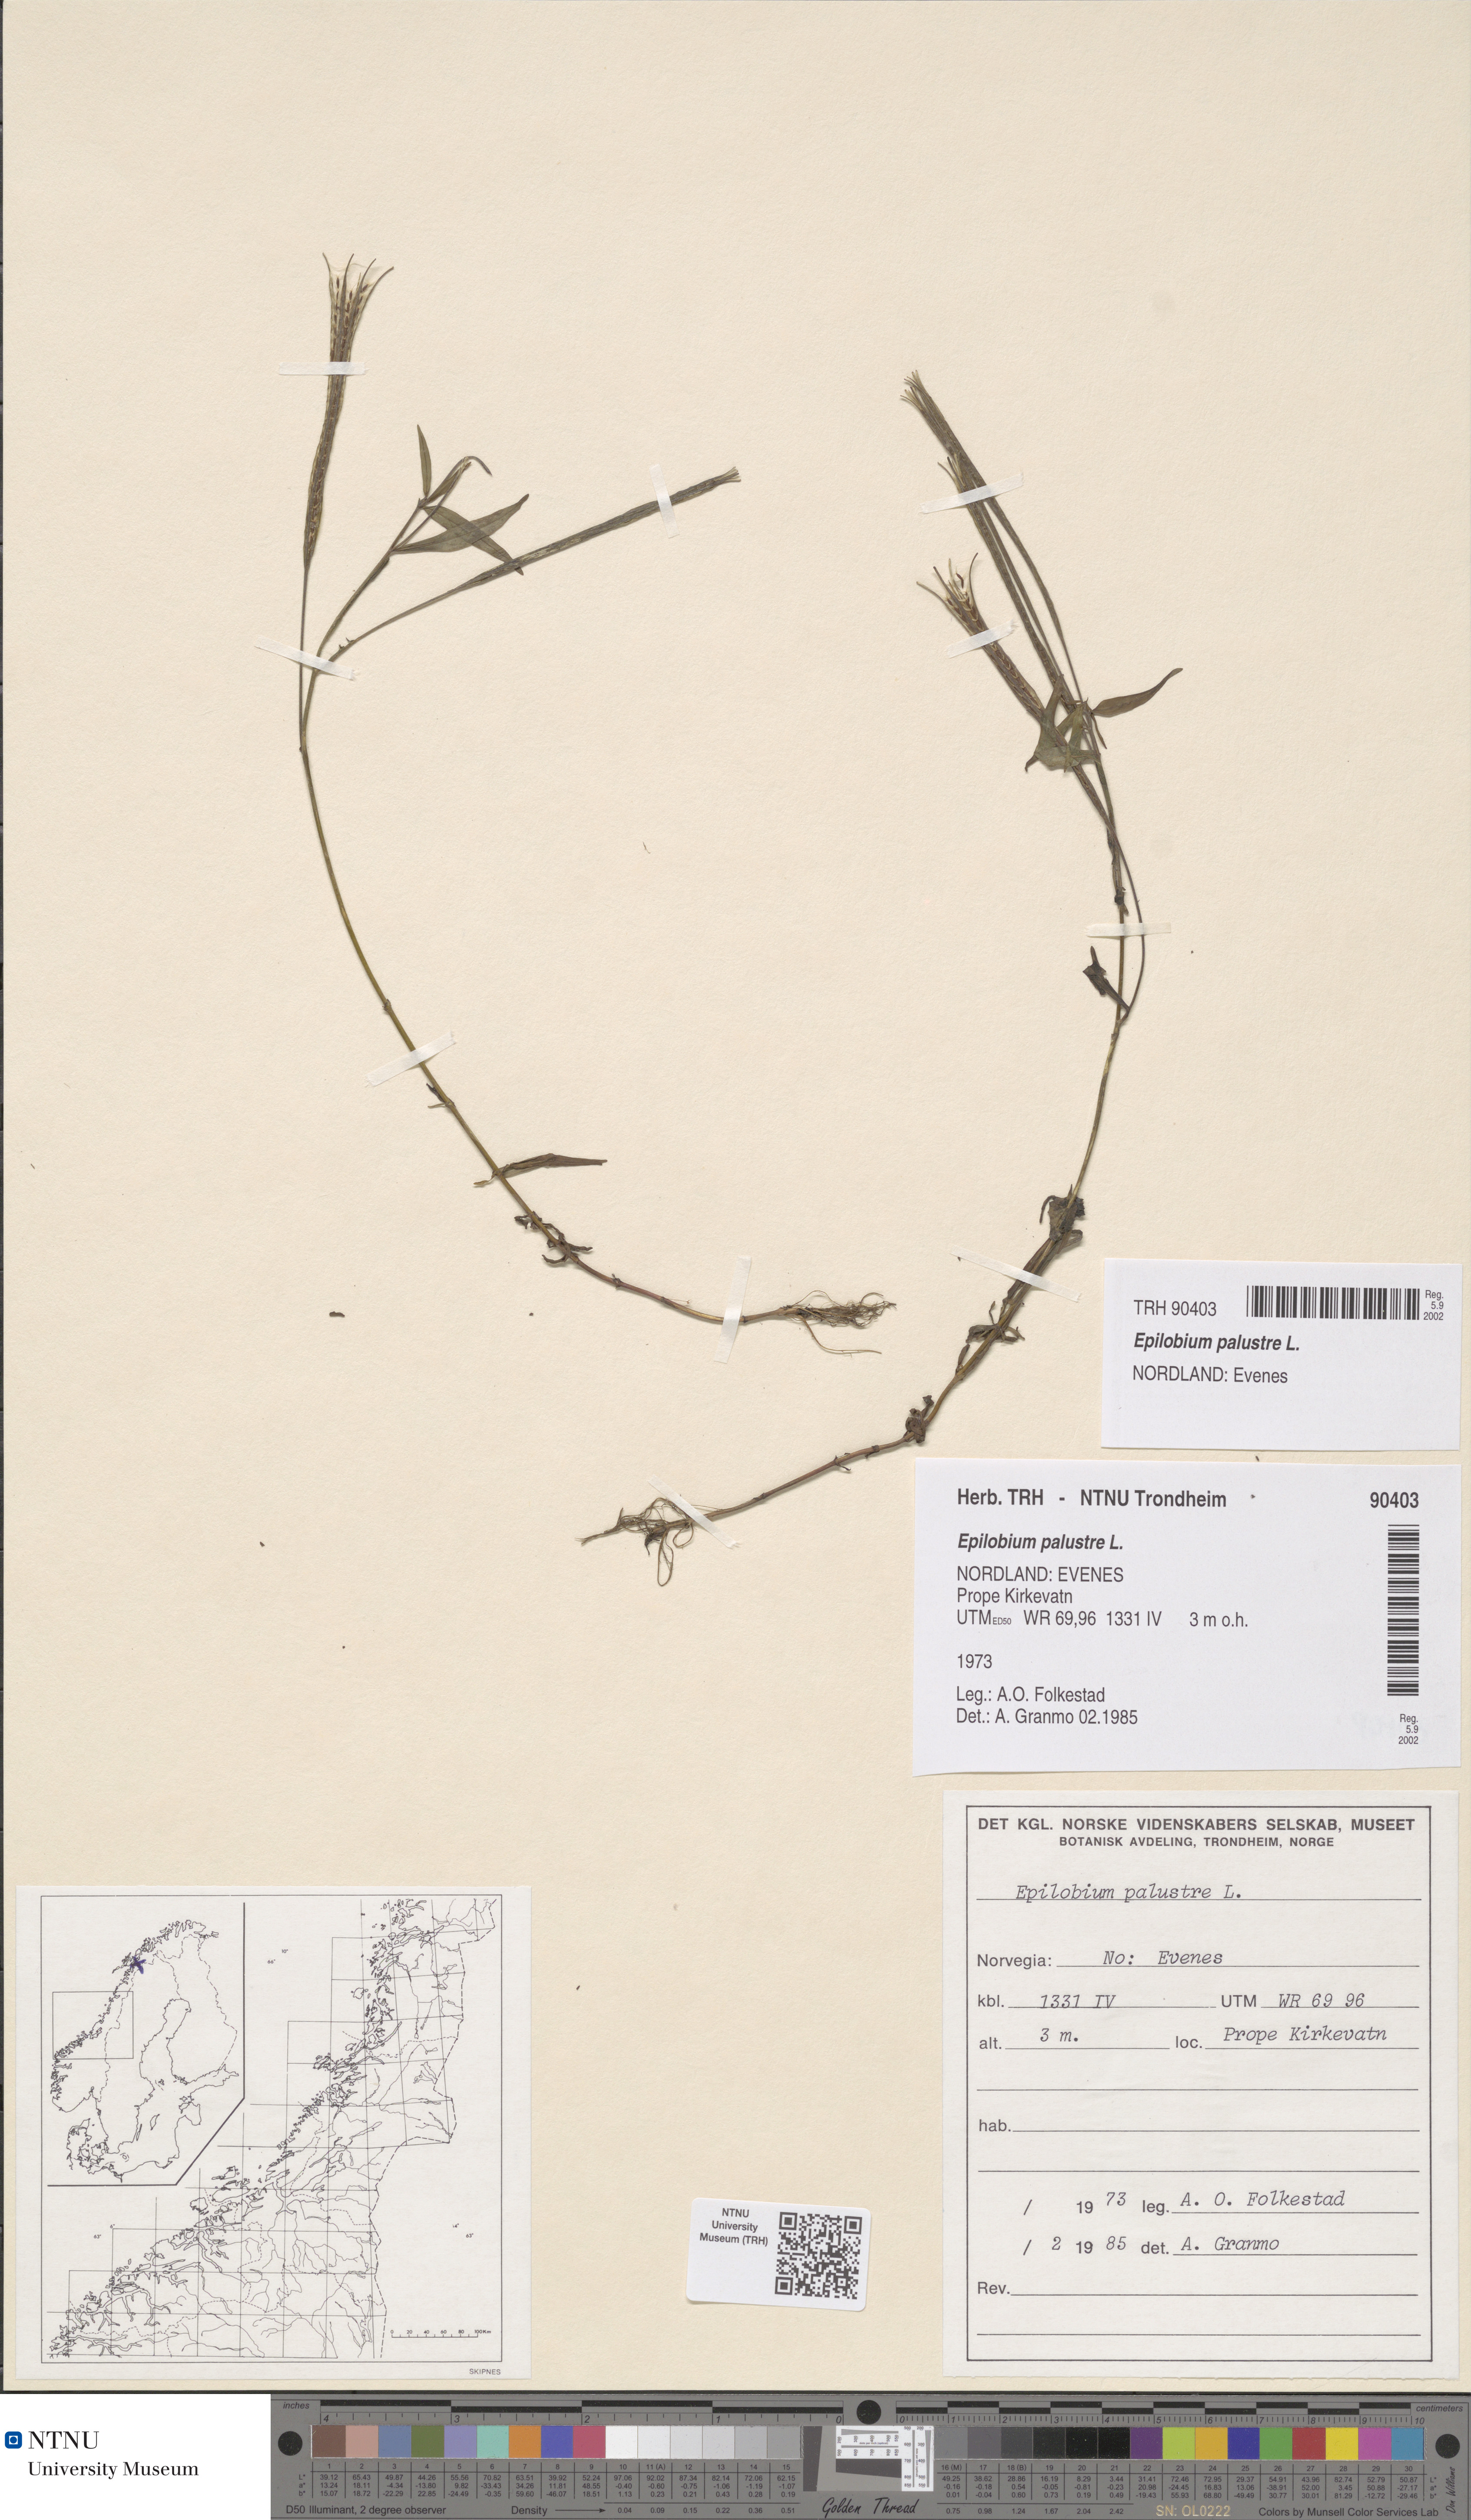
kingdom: Plantae
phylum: Tracheophyta
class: Magnoliopsida
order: Myrtales
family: Onagraceae
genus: Epilobium
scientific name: Epilobium palustre
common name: Marsh willowherb
